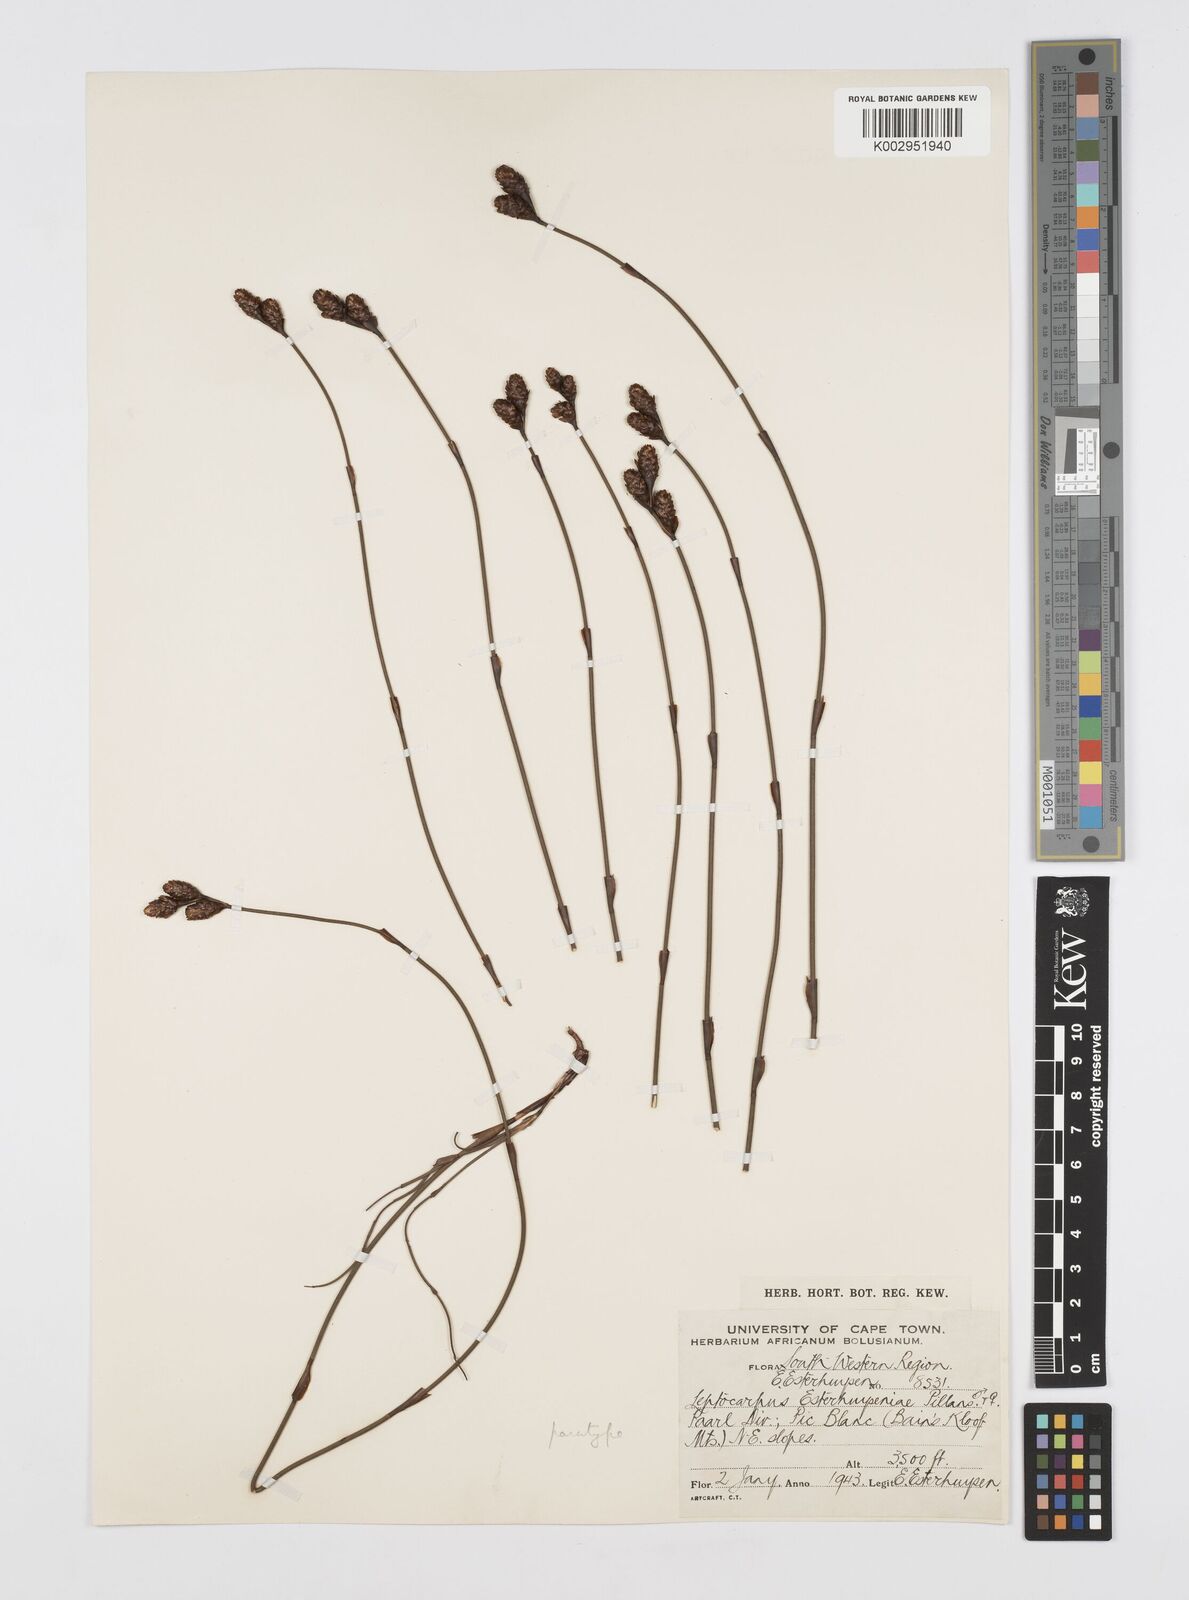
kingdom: Plantae
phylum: Tracheophyta
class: Liliopsida
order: Poales
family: Restionaceae
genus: Restio
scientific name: Restio esterhuyseniae
